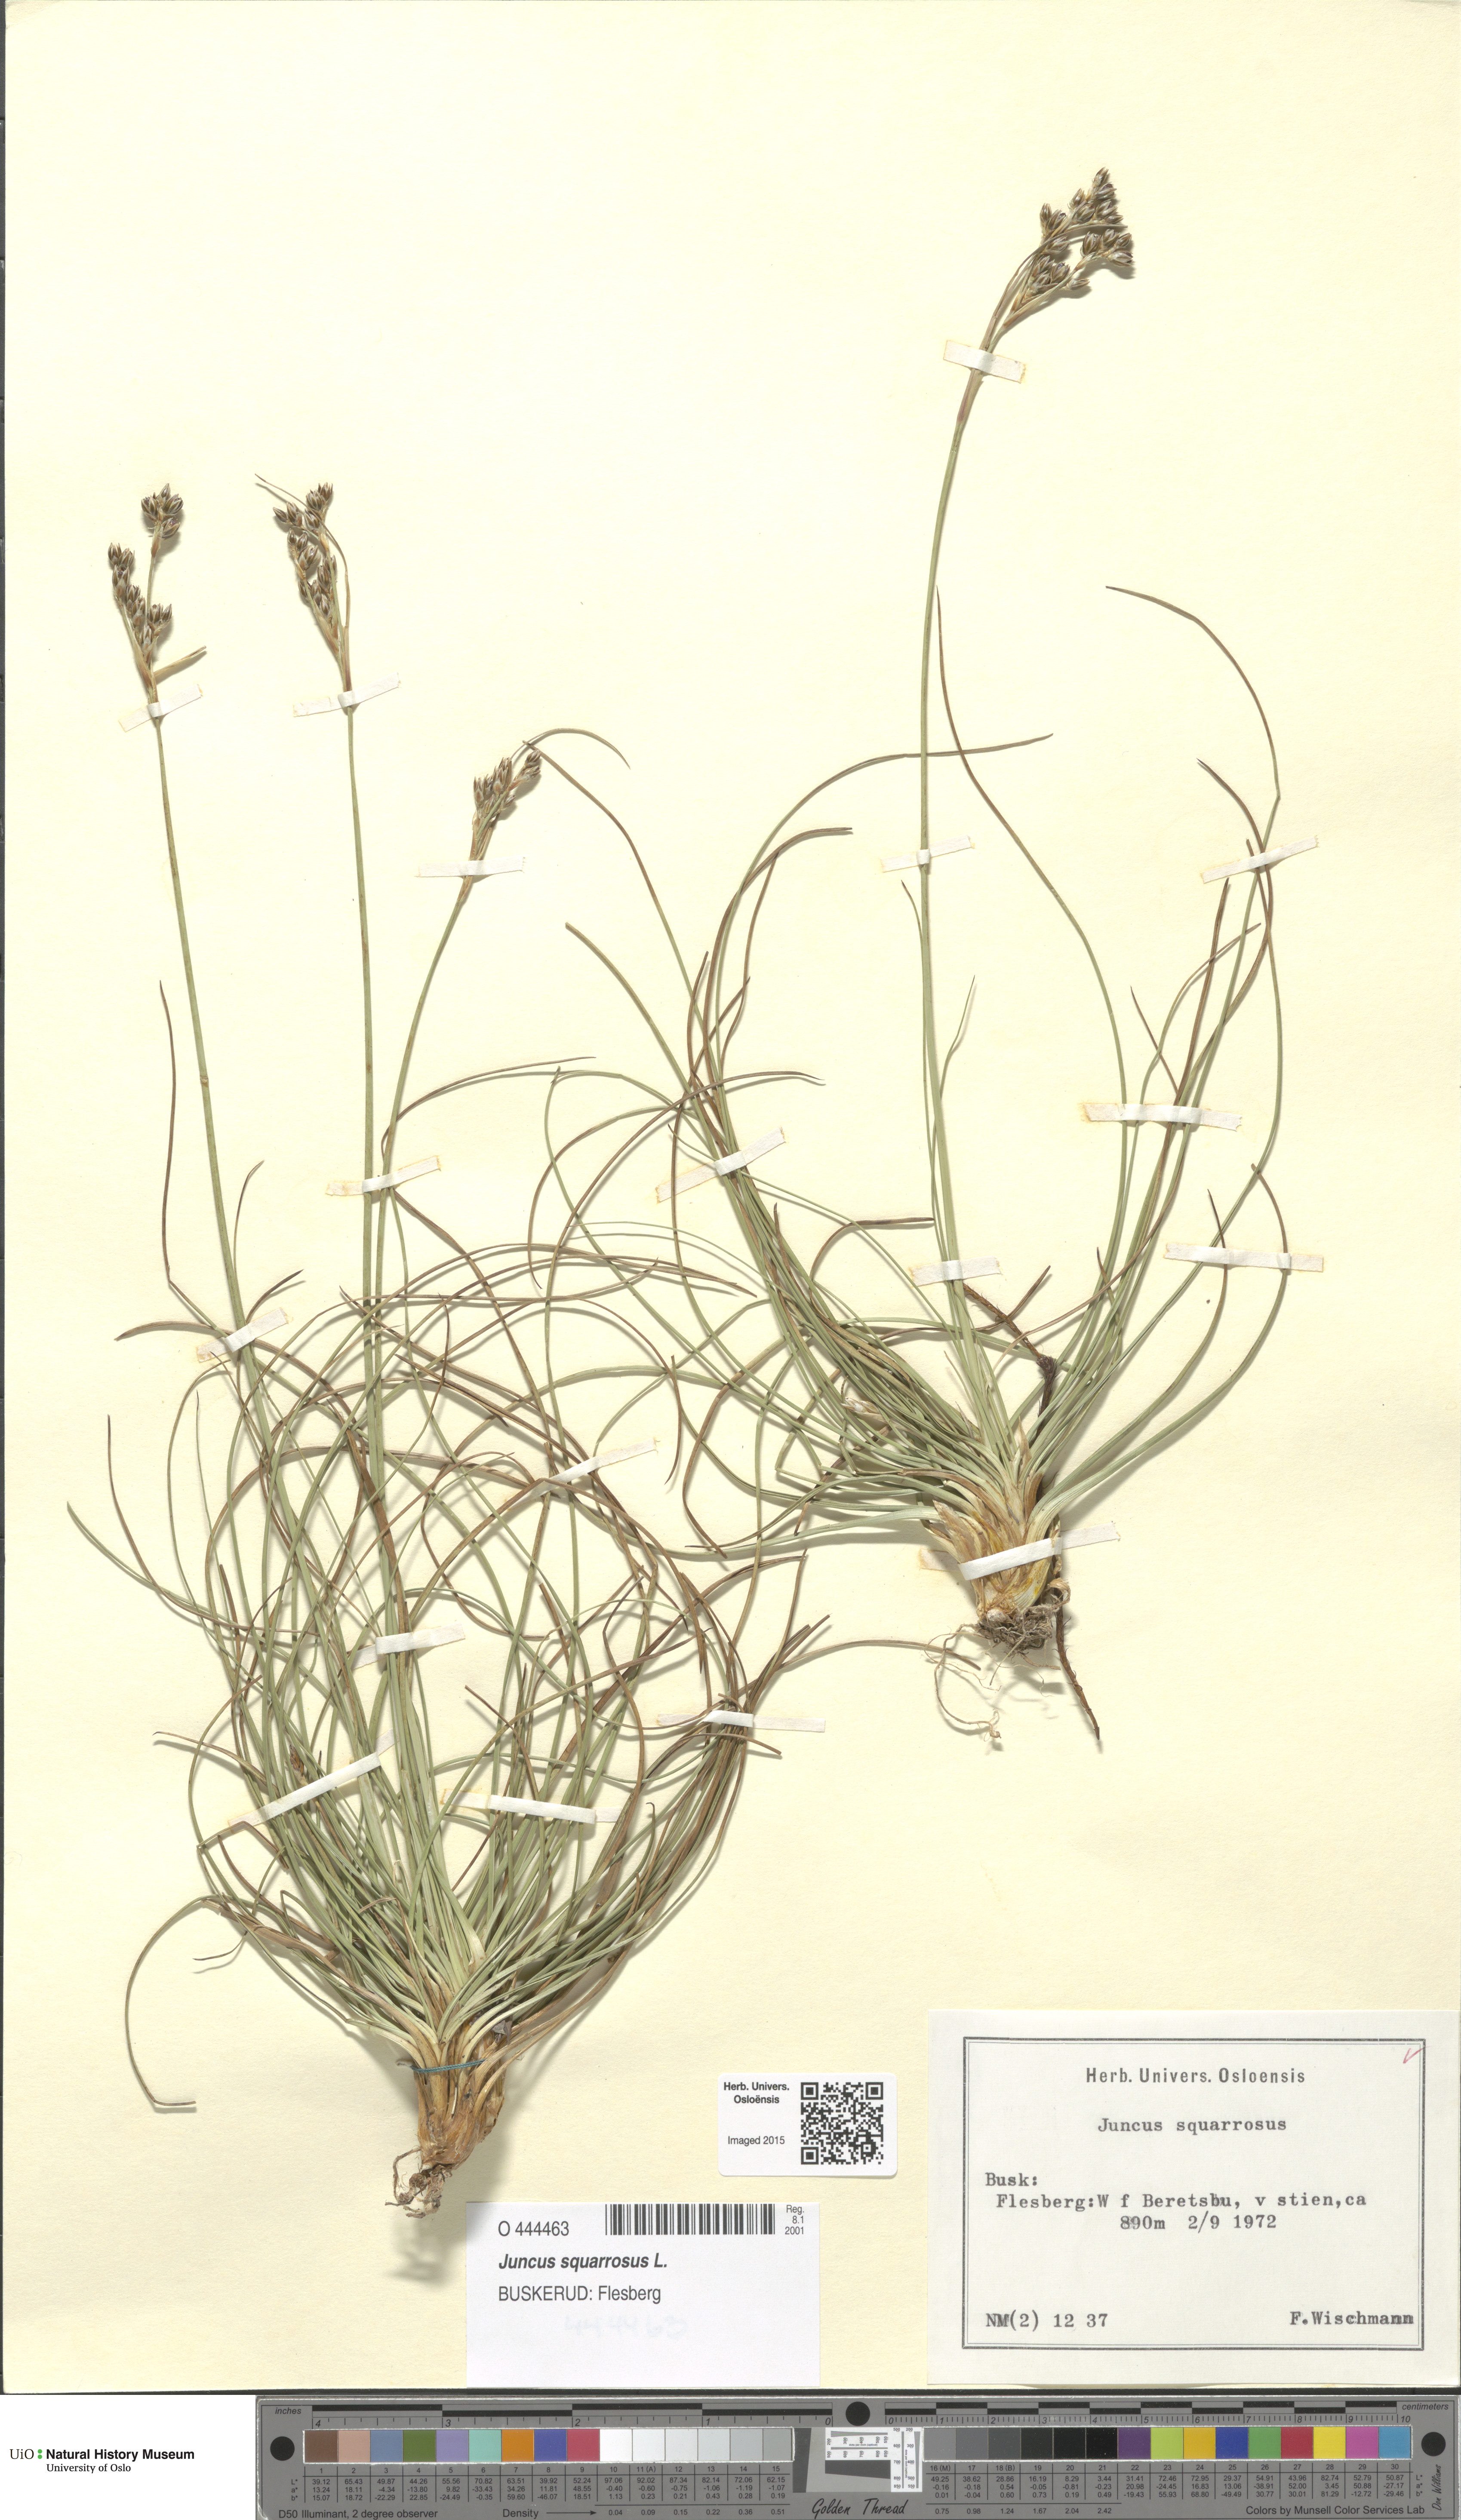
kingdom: Plantae
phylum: Tracheophyta
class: Liliopsida
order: Poales
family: Juncaceae
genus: Juncus
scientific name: Juncus squarrosus
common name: Heath rush
